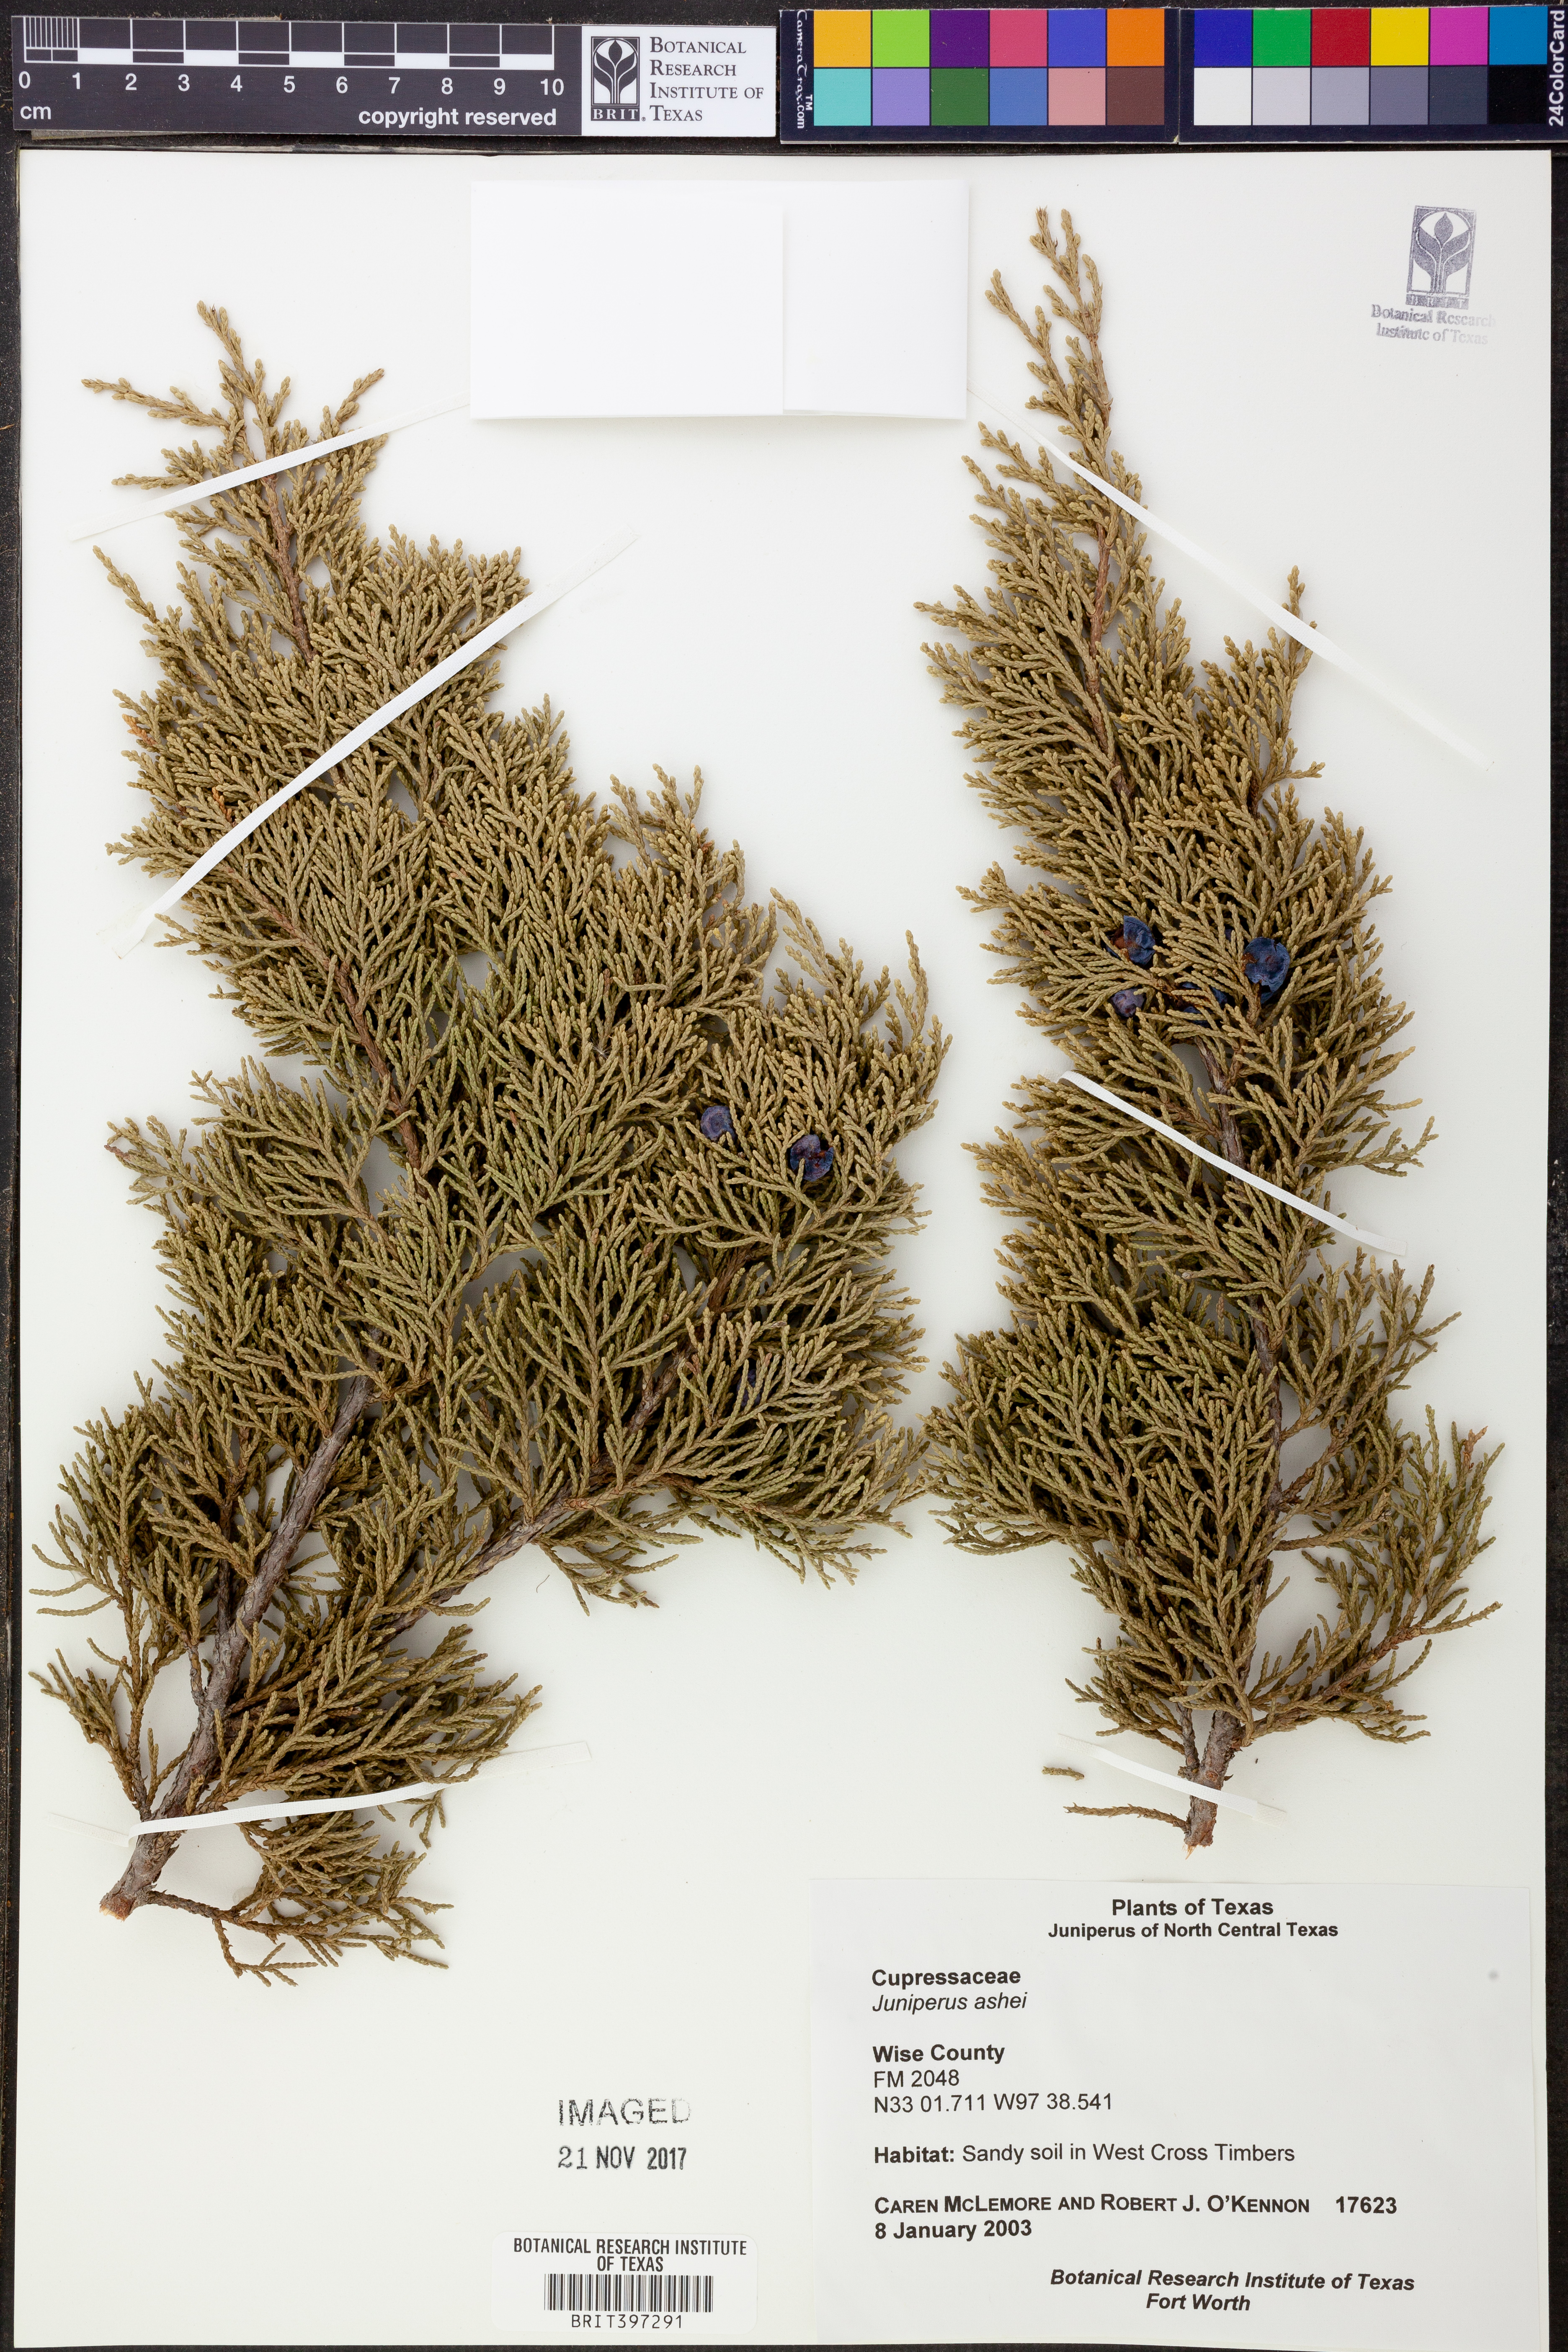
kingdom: Plantae
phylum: Tracheophyta
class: Pinopsida
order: Pinales
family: Cupressaceae
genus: Juniperus
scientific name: Juniperus ashei
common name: Mexican juniper
